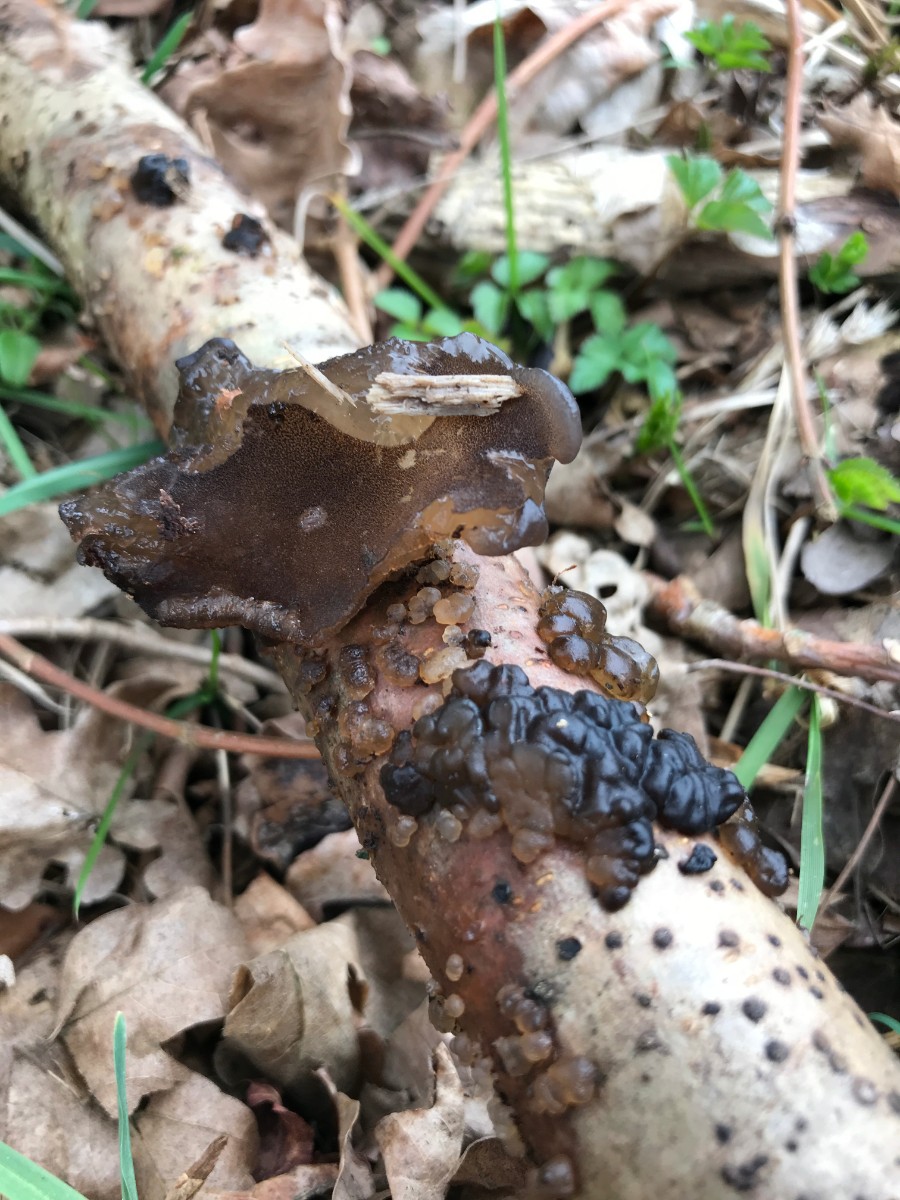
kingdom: Fungi
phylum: Basidiomycota
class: Agaricomycetes
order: Auriculariales
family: Auriculariaceae
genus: Exidia
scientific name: Exidia nigricans
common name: almindelig bævretop
